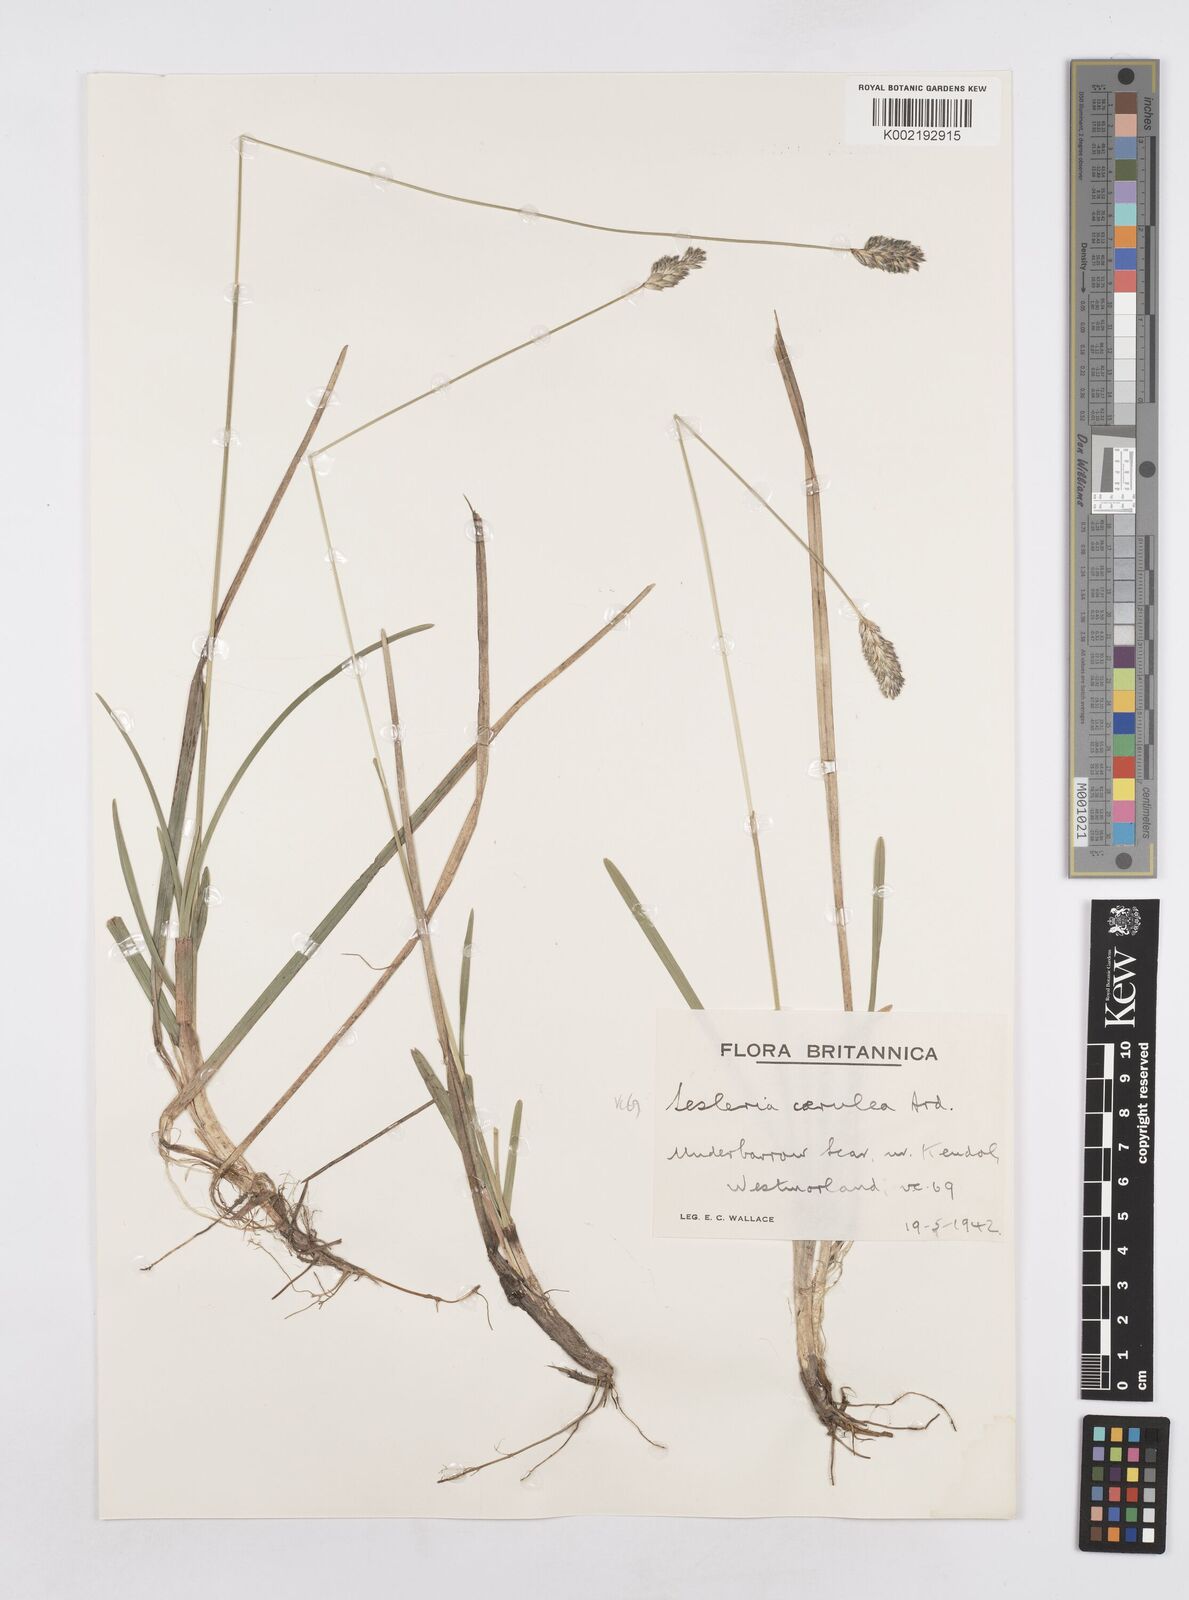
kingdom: Plantae
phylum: Tracheophyta
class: Liliopsida
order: Poales
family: Poaceae
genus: Sesleria
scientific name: Sesleria caerulea
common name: Blue moor-grass
